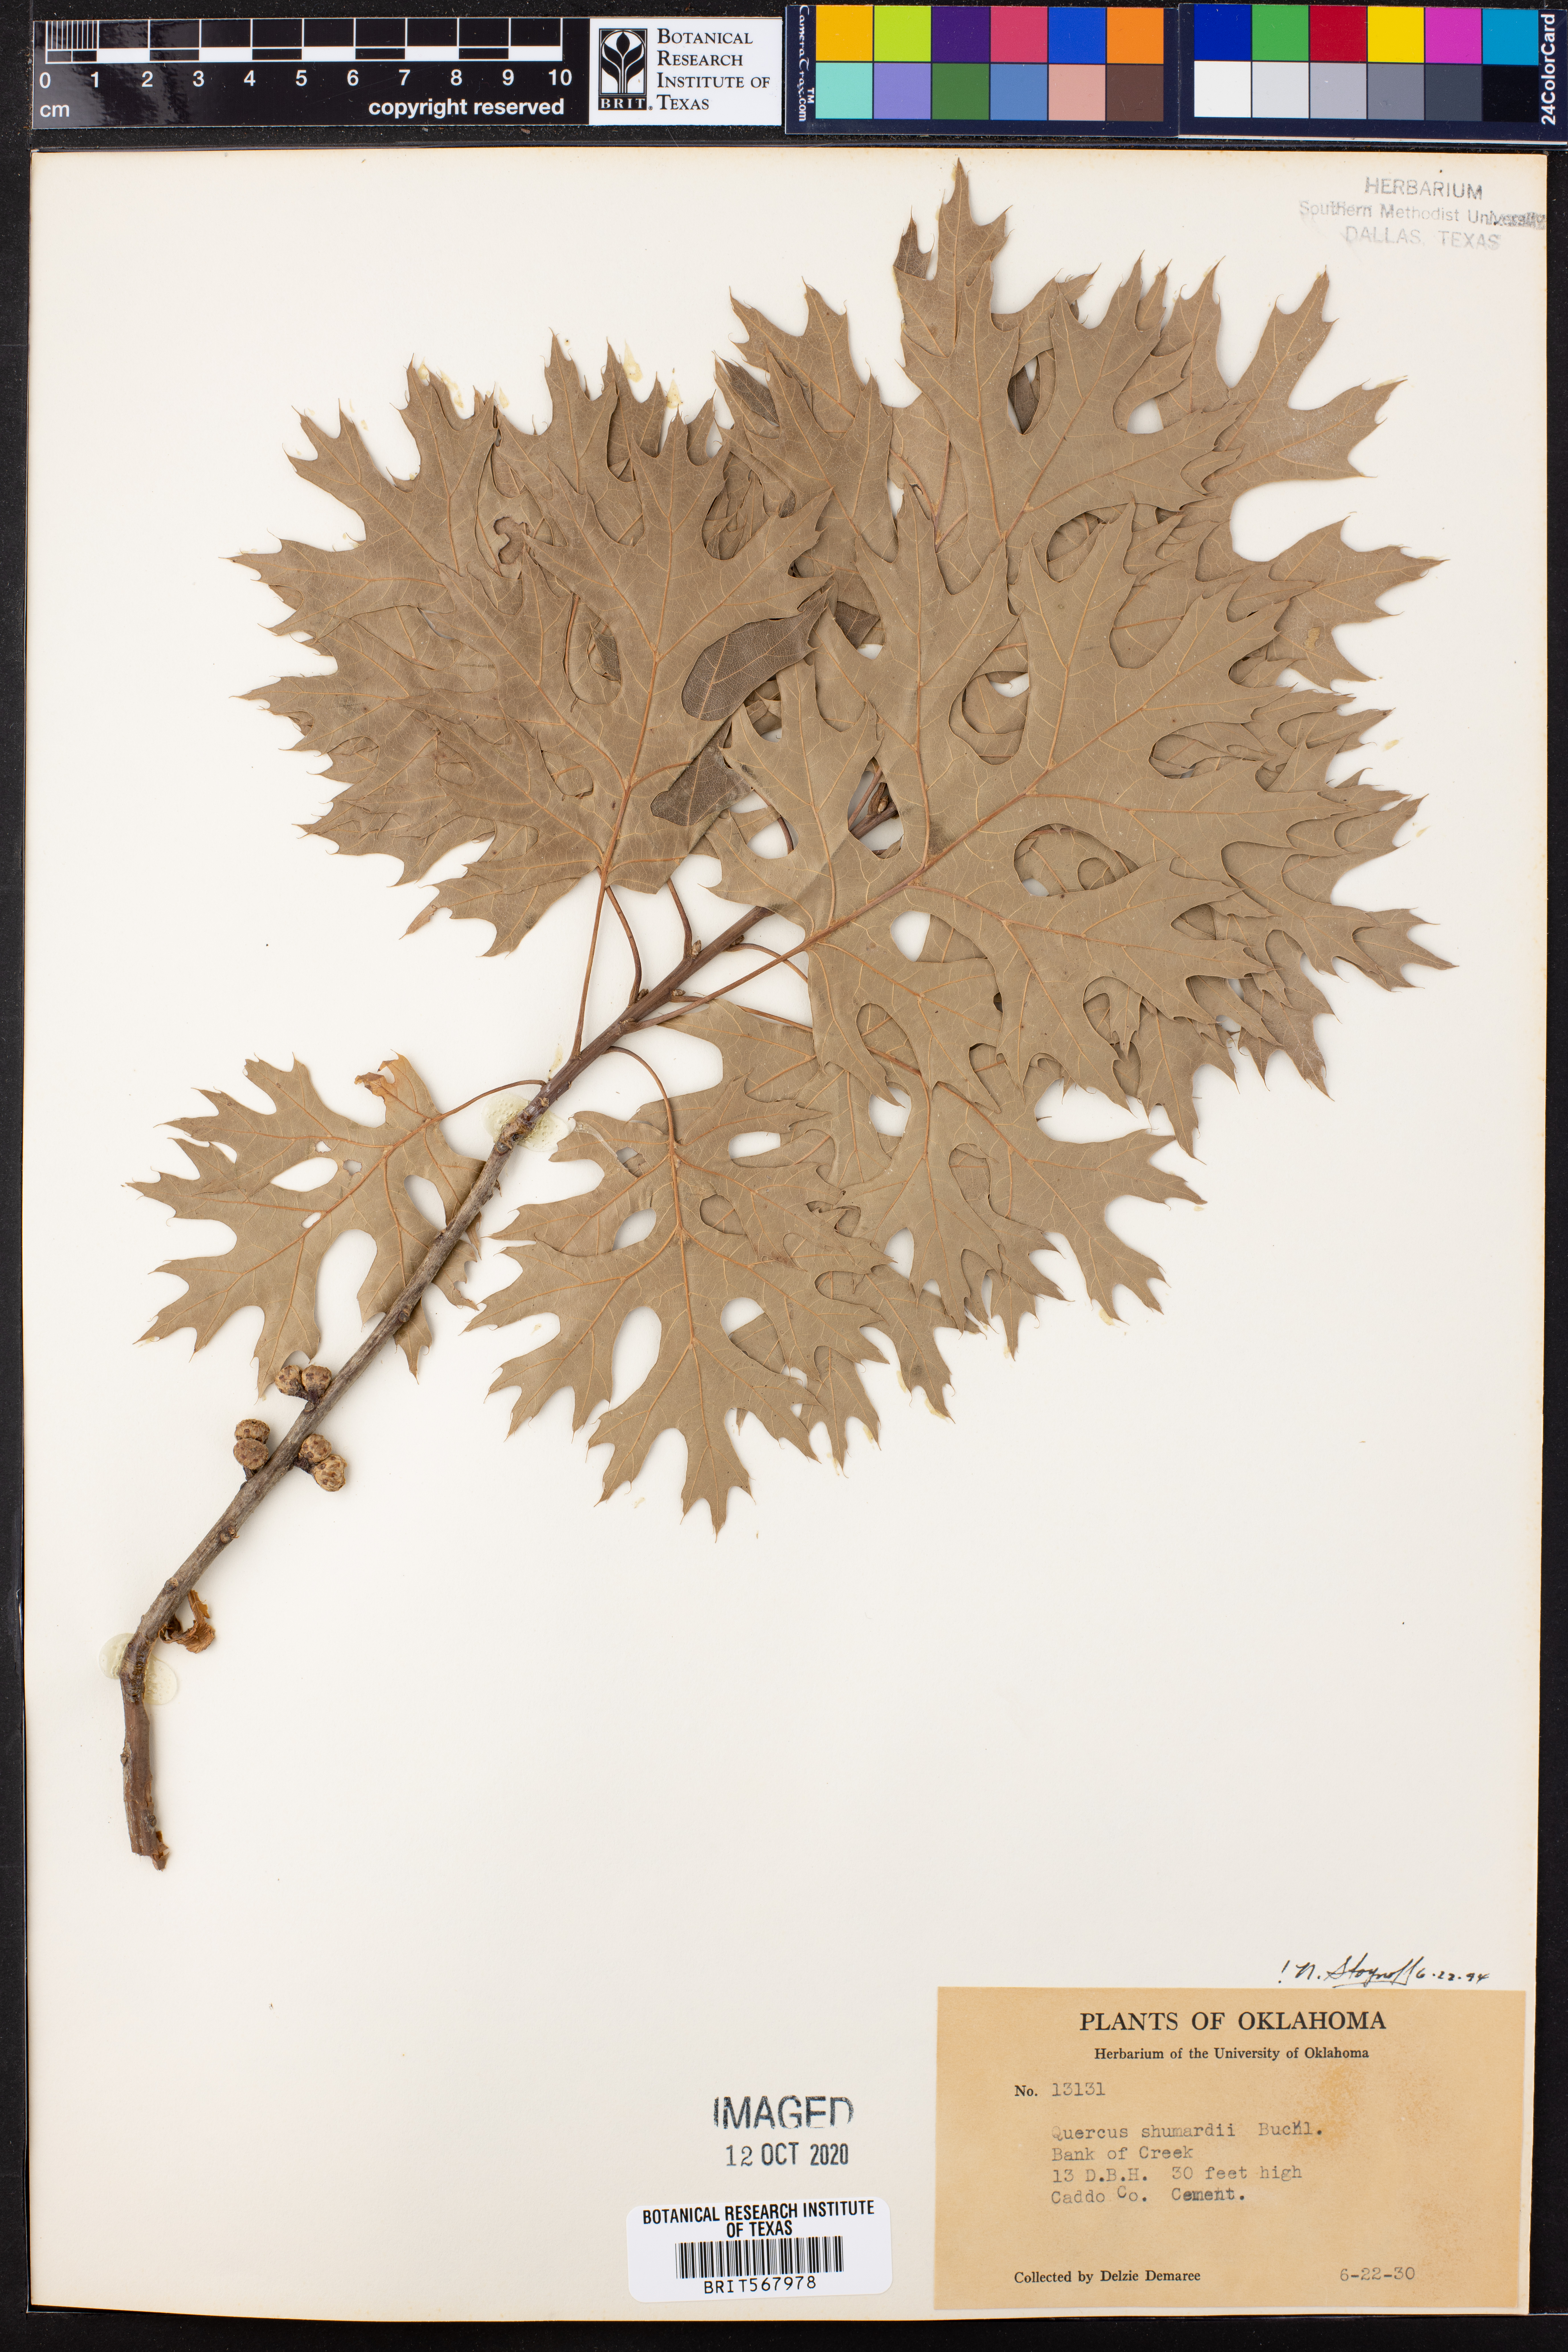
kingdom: Plantae
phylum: Tracheophyta
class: Magnoliopsida
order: Fagales
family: Fagaceae
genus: Quercus
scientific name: Quercus shumardii
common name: Shumard oak
